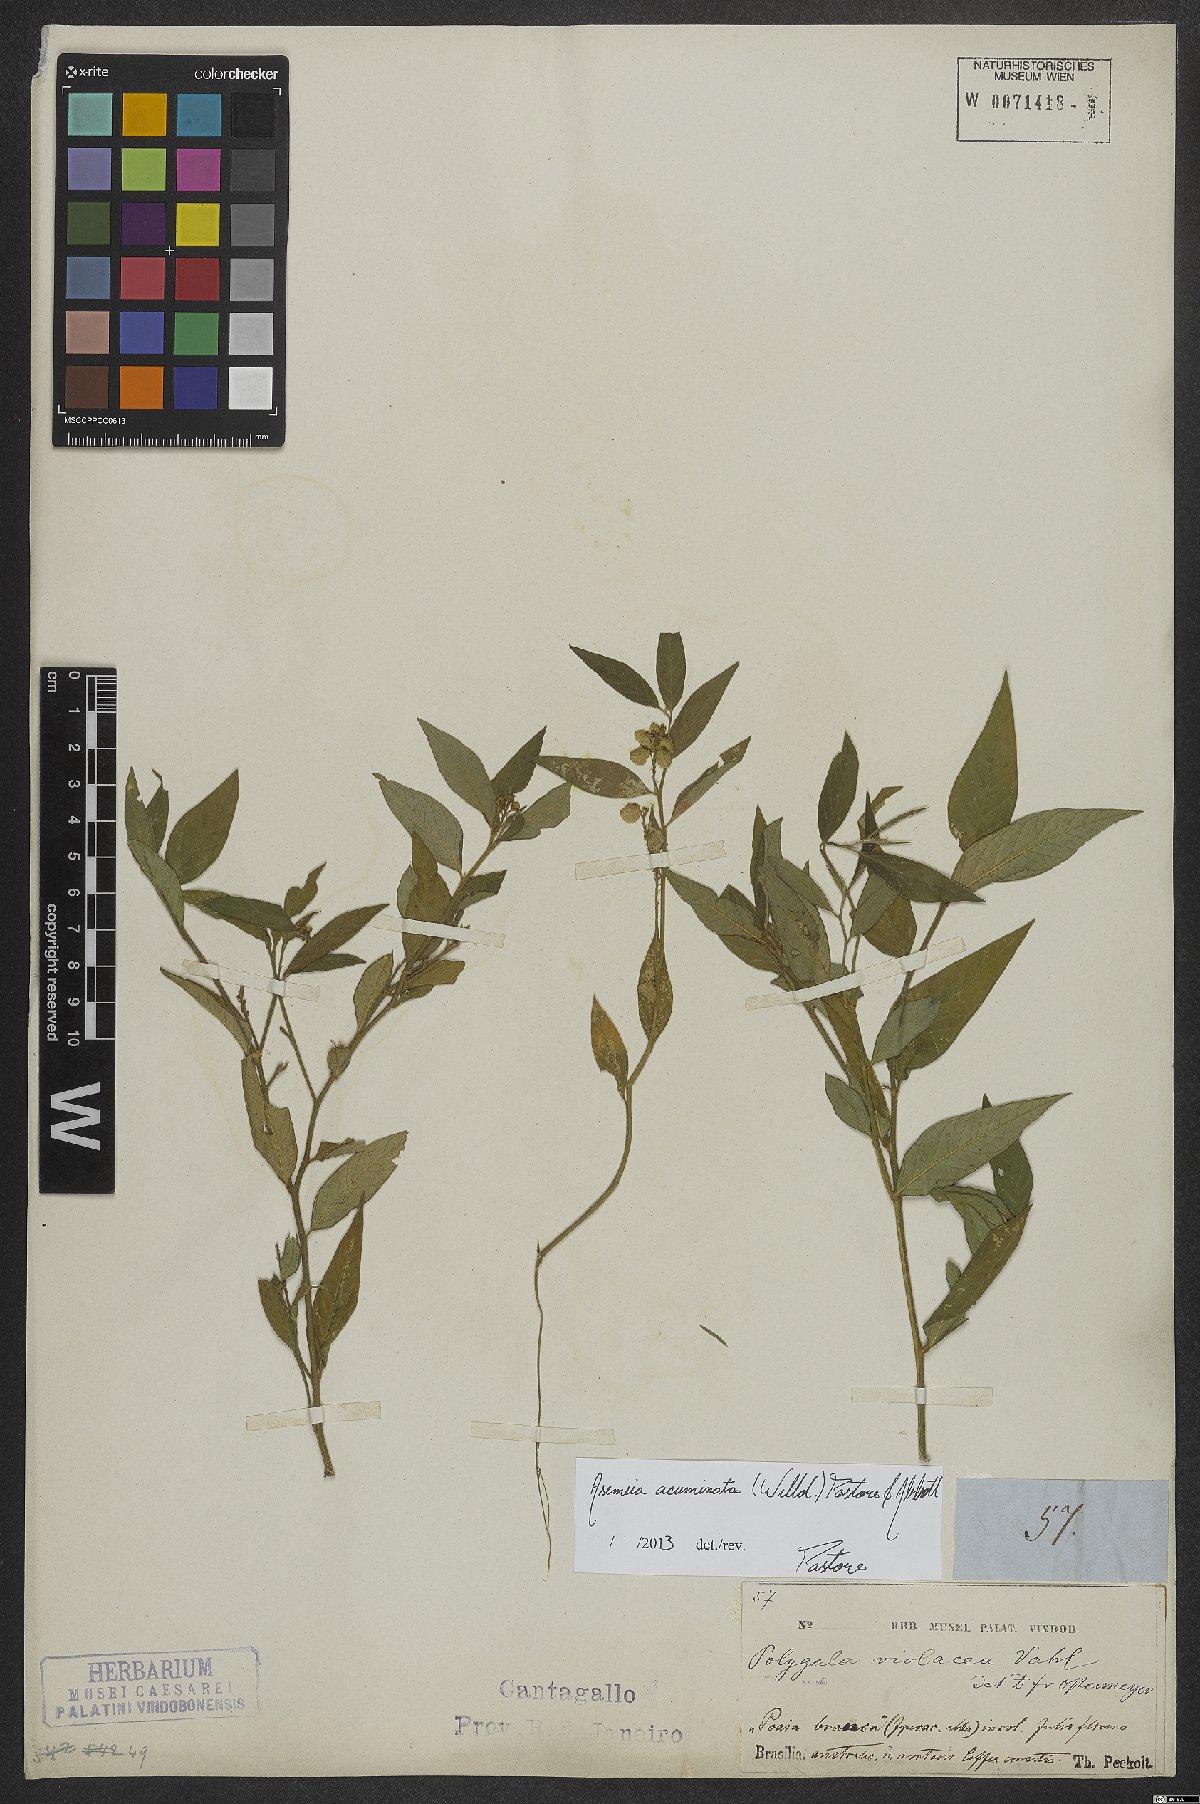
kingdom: Plantae
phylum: Tracheophyta
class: Magnoliopsida
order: Fabales
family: Polygalaceae
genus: Asemeia
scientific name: Asemeia acuminata
